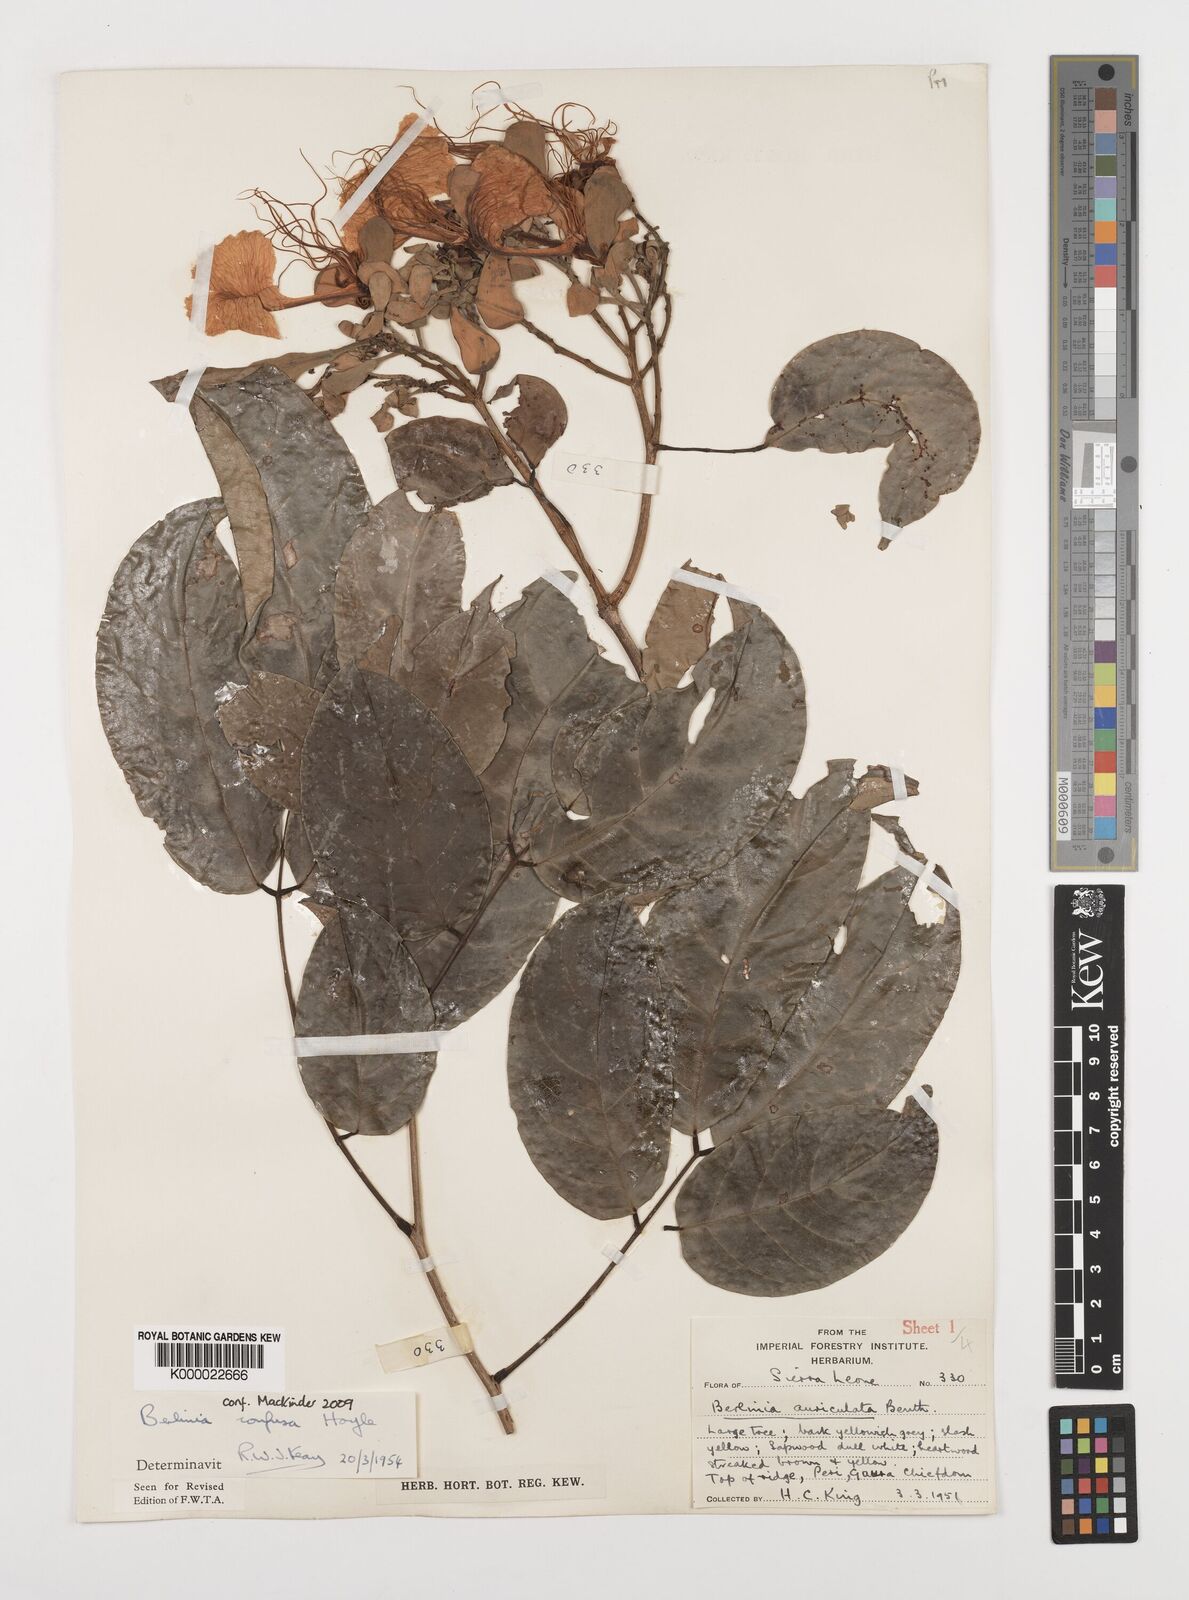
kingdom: Plantae
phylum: Tracheophyta
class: Magnoliopsida
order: Fabales
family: Fabaceae
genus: Berlinia
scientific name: Berlinia confusa
